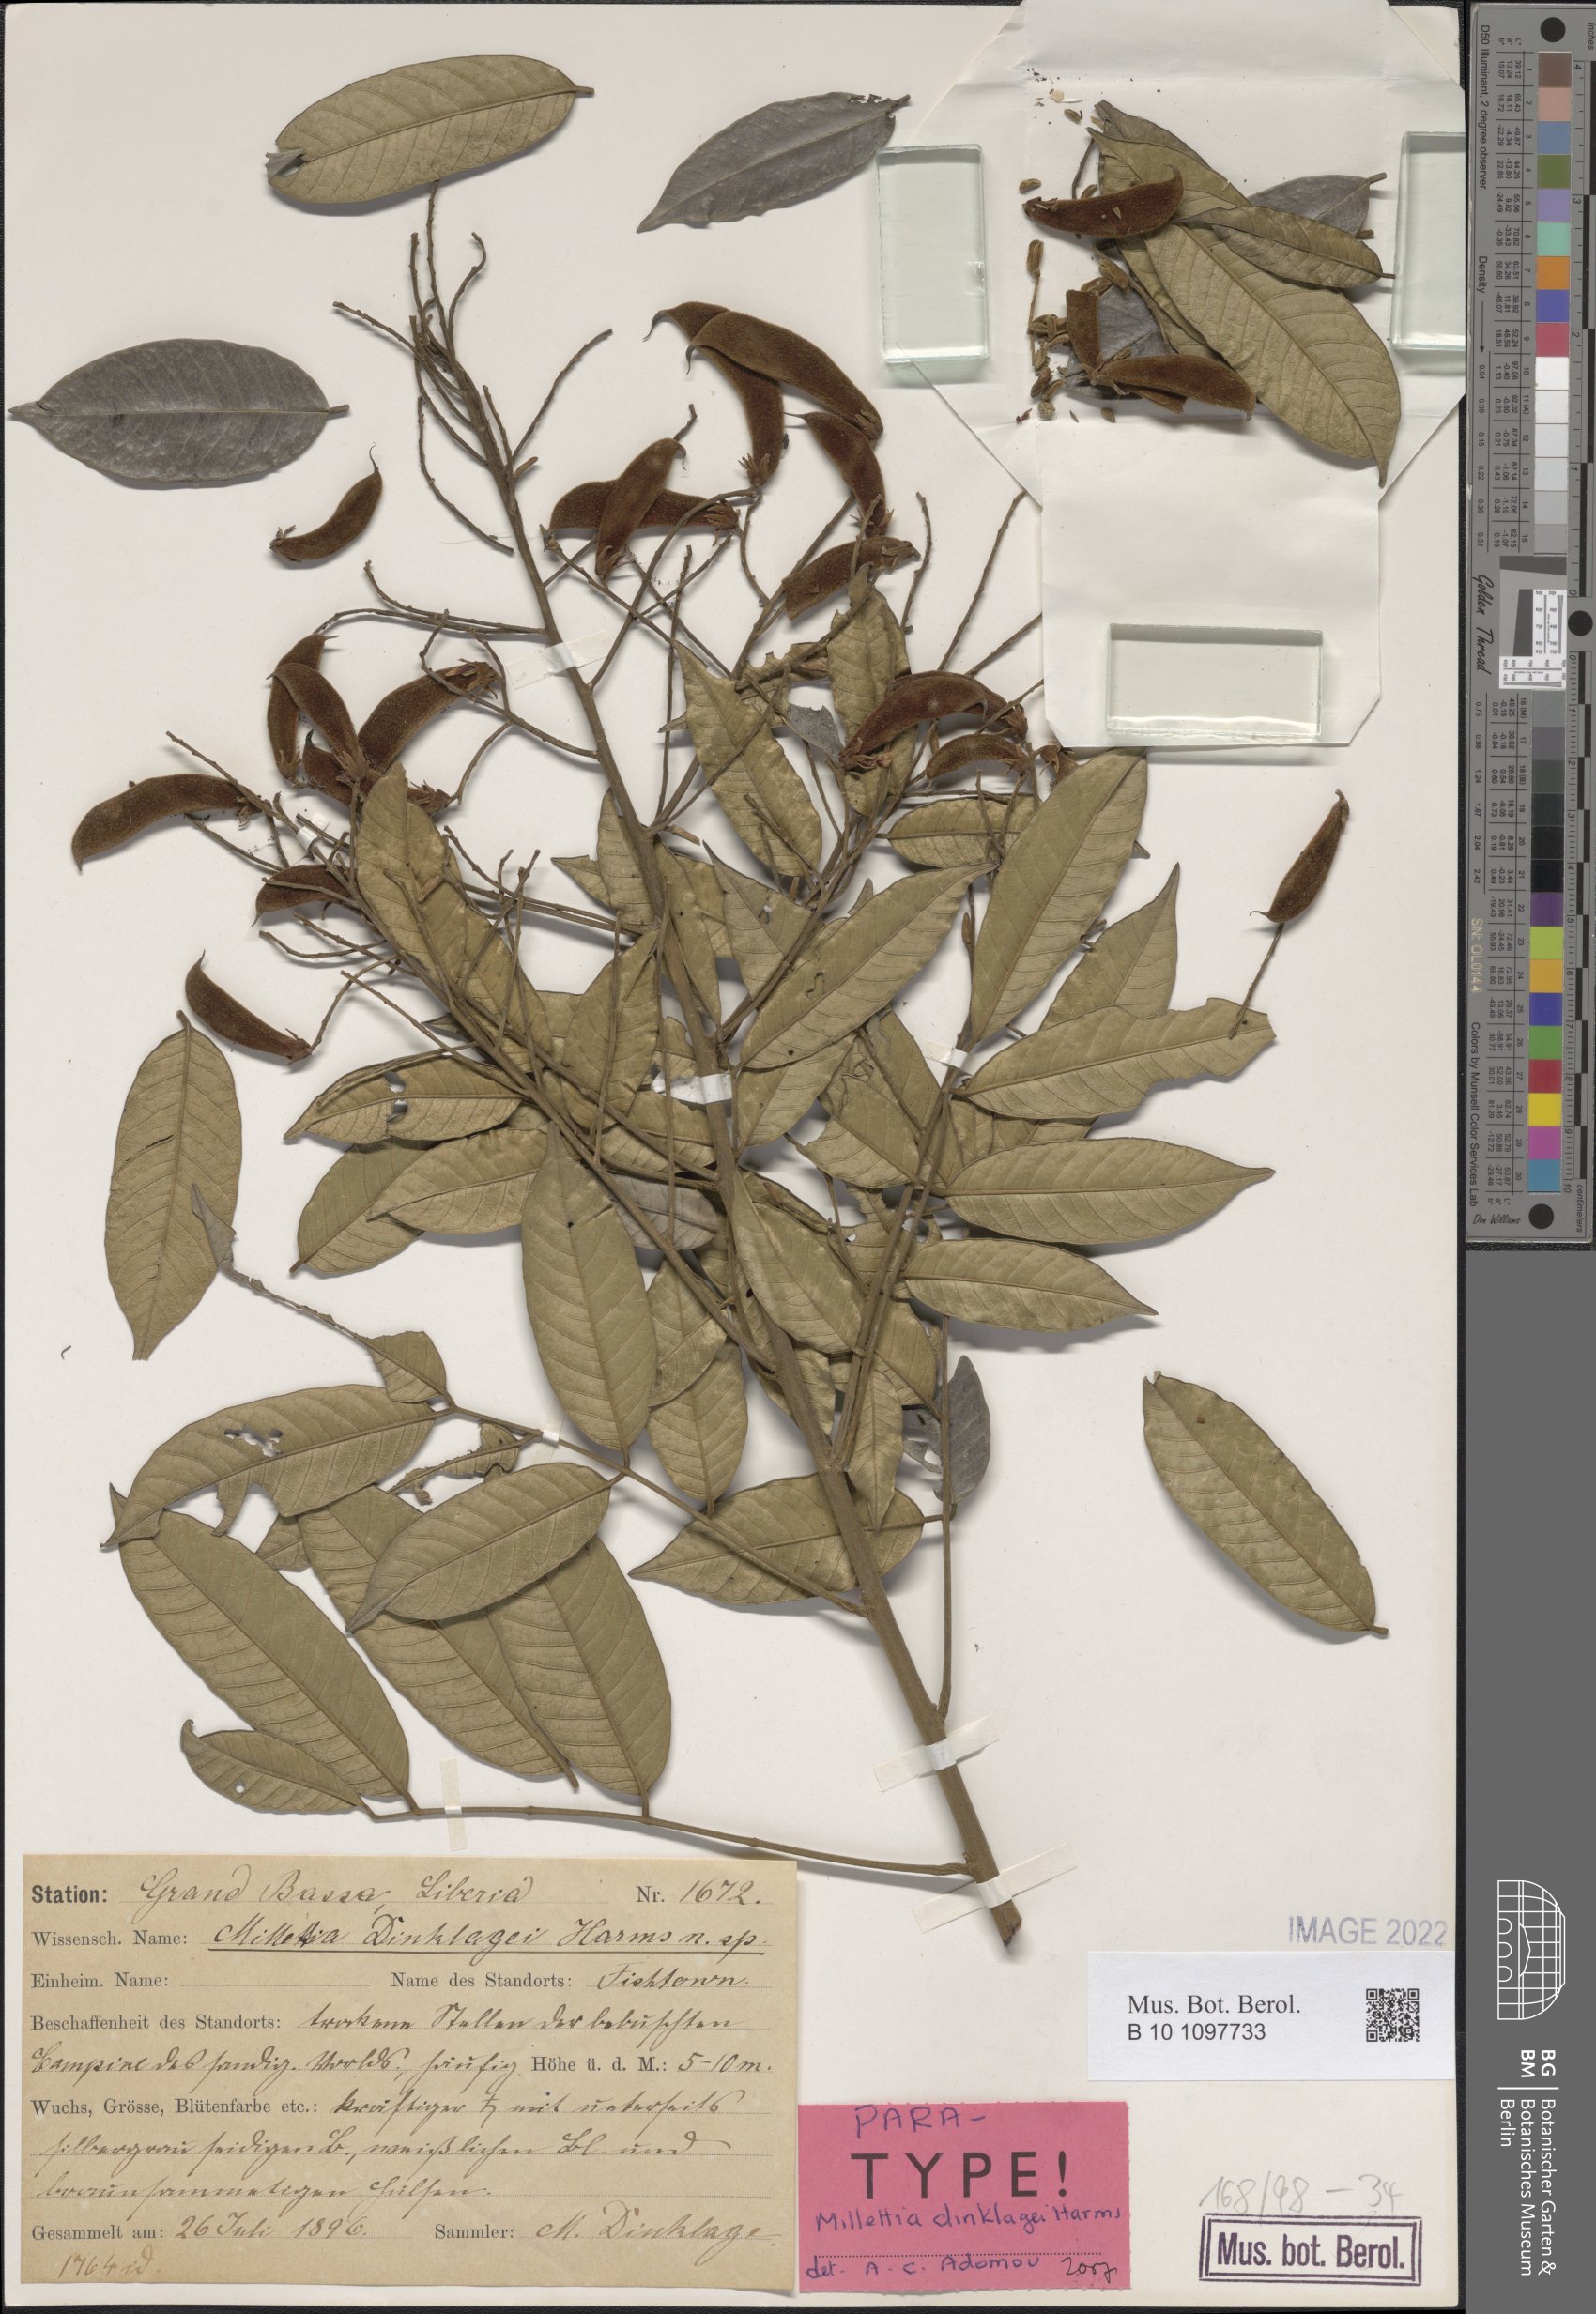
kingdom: Plantae
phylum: Tracheophyta
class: Magnoliopsida
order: Fabales
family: Fabaceae
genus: Millettia
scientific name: Millettia dinklagei
